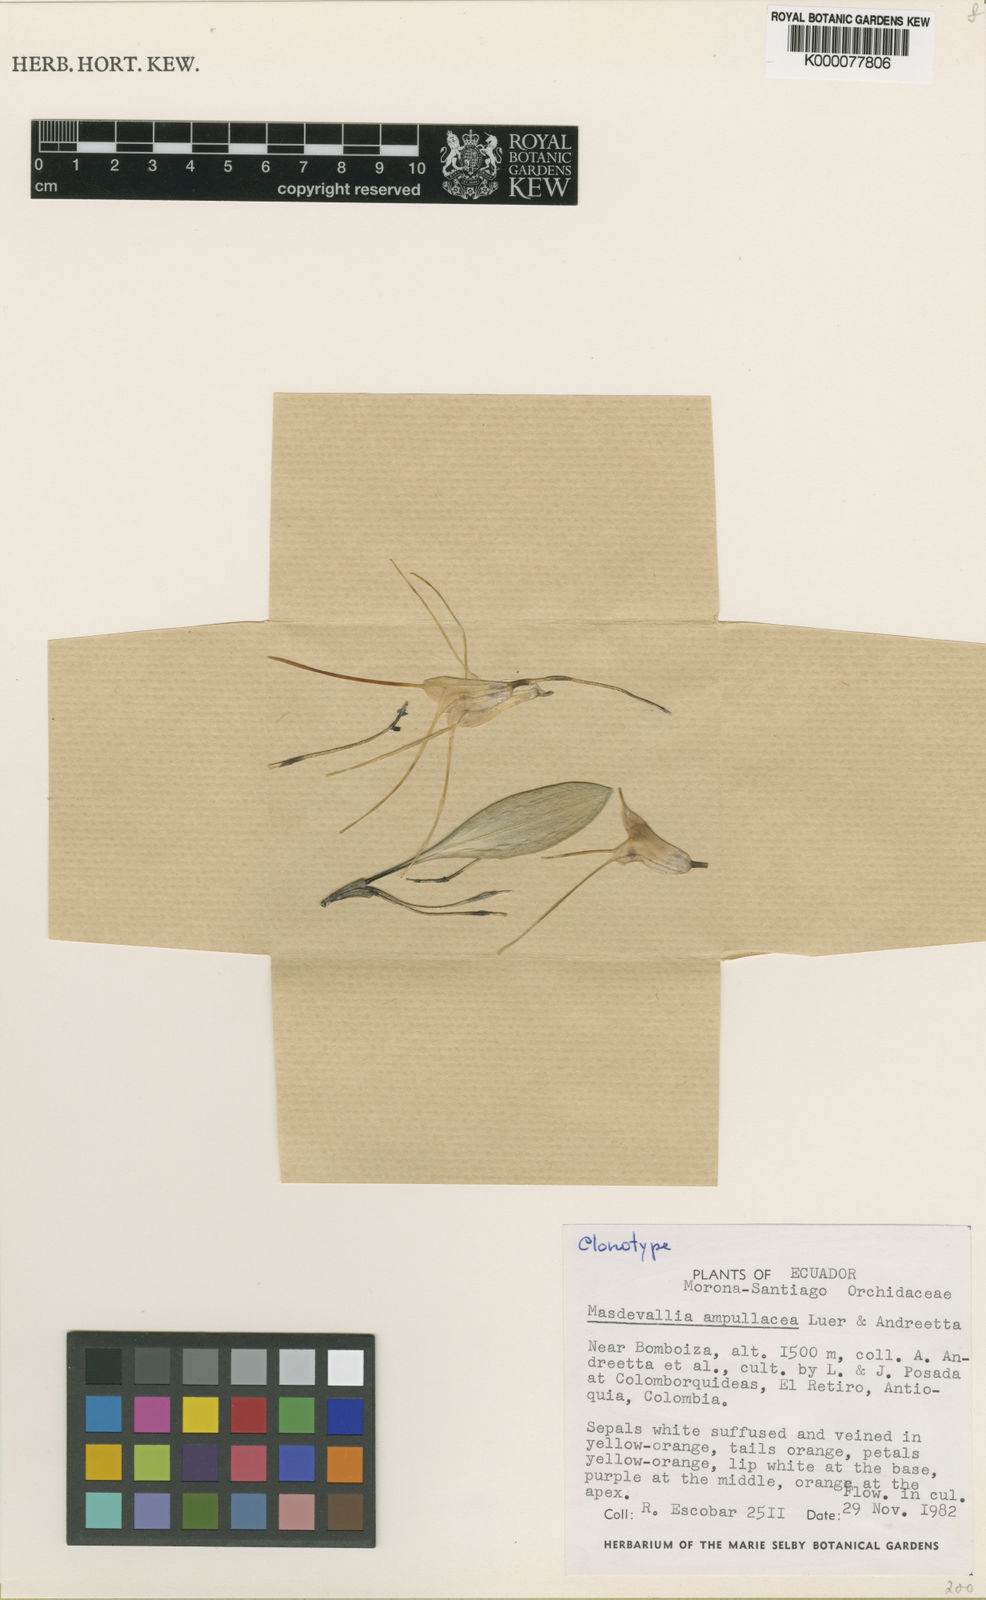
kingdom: Plantae
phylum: Tracheophyta
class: Liliopsida
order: Asparagales
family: Orchidaceae
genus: Masdevallia
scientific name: Masdevallia ampullacea
